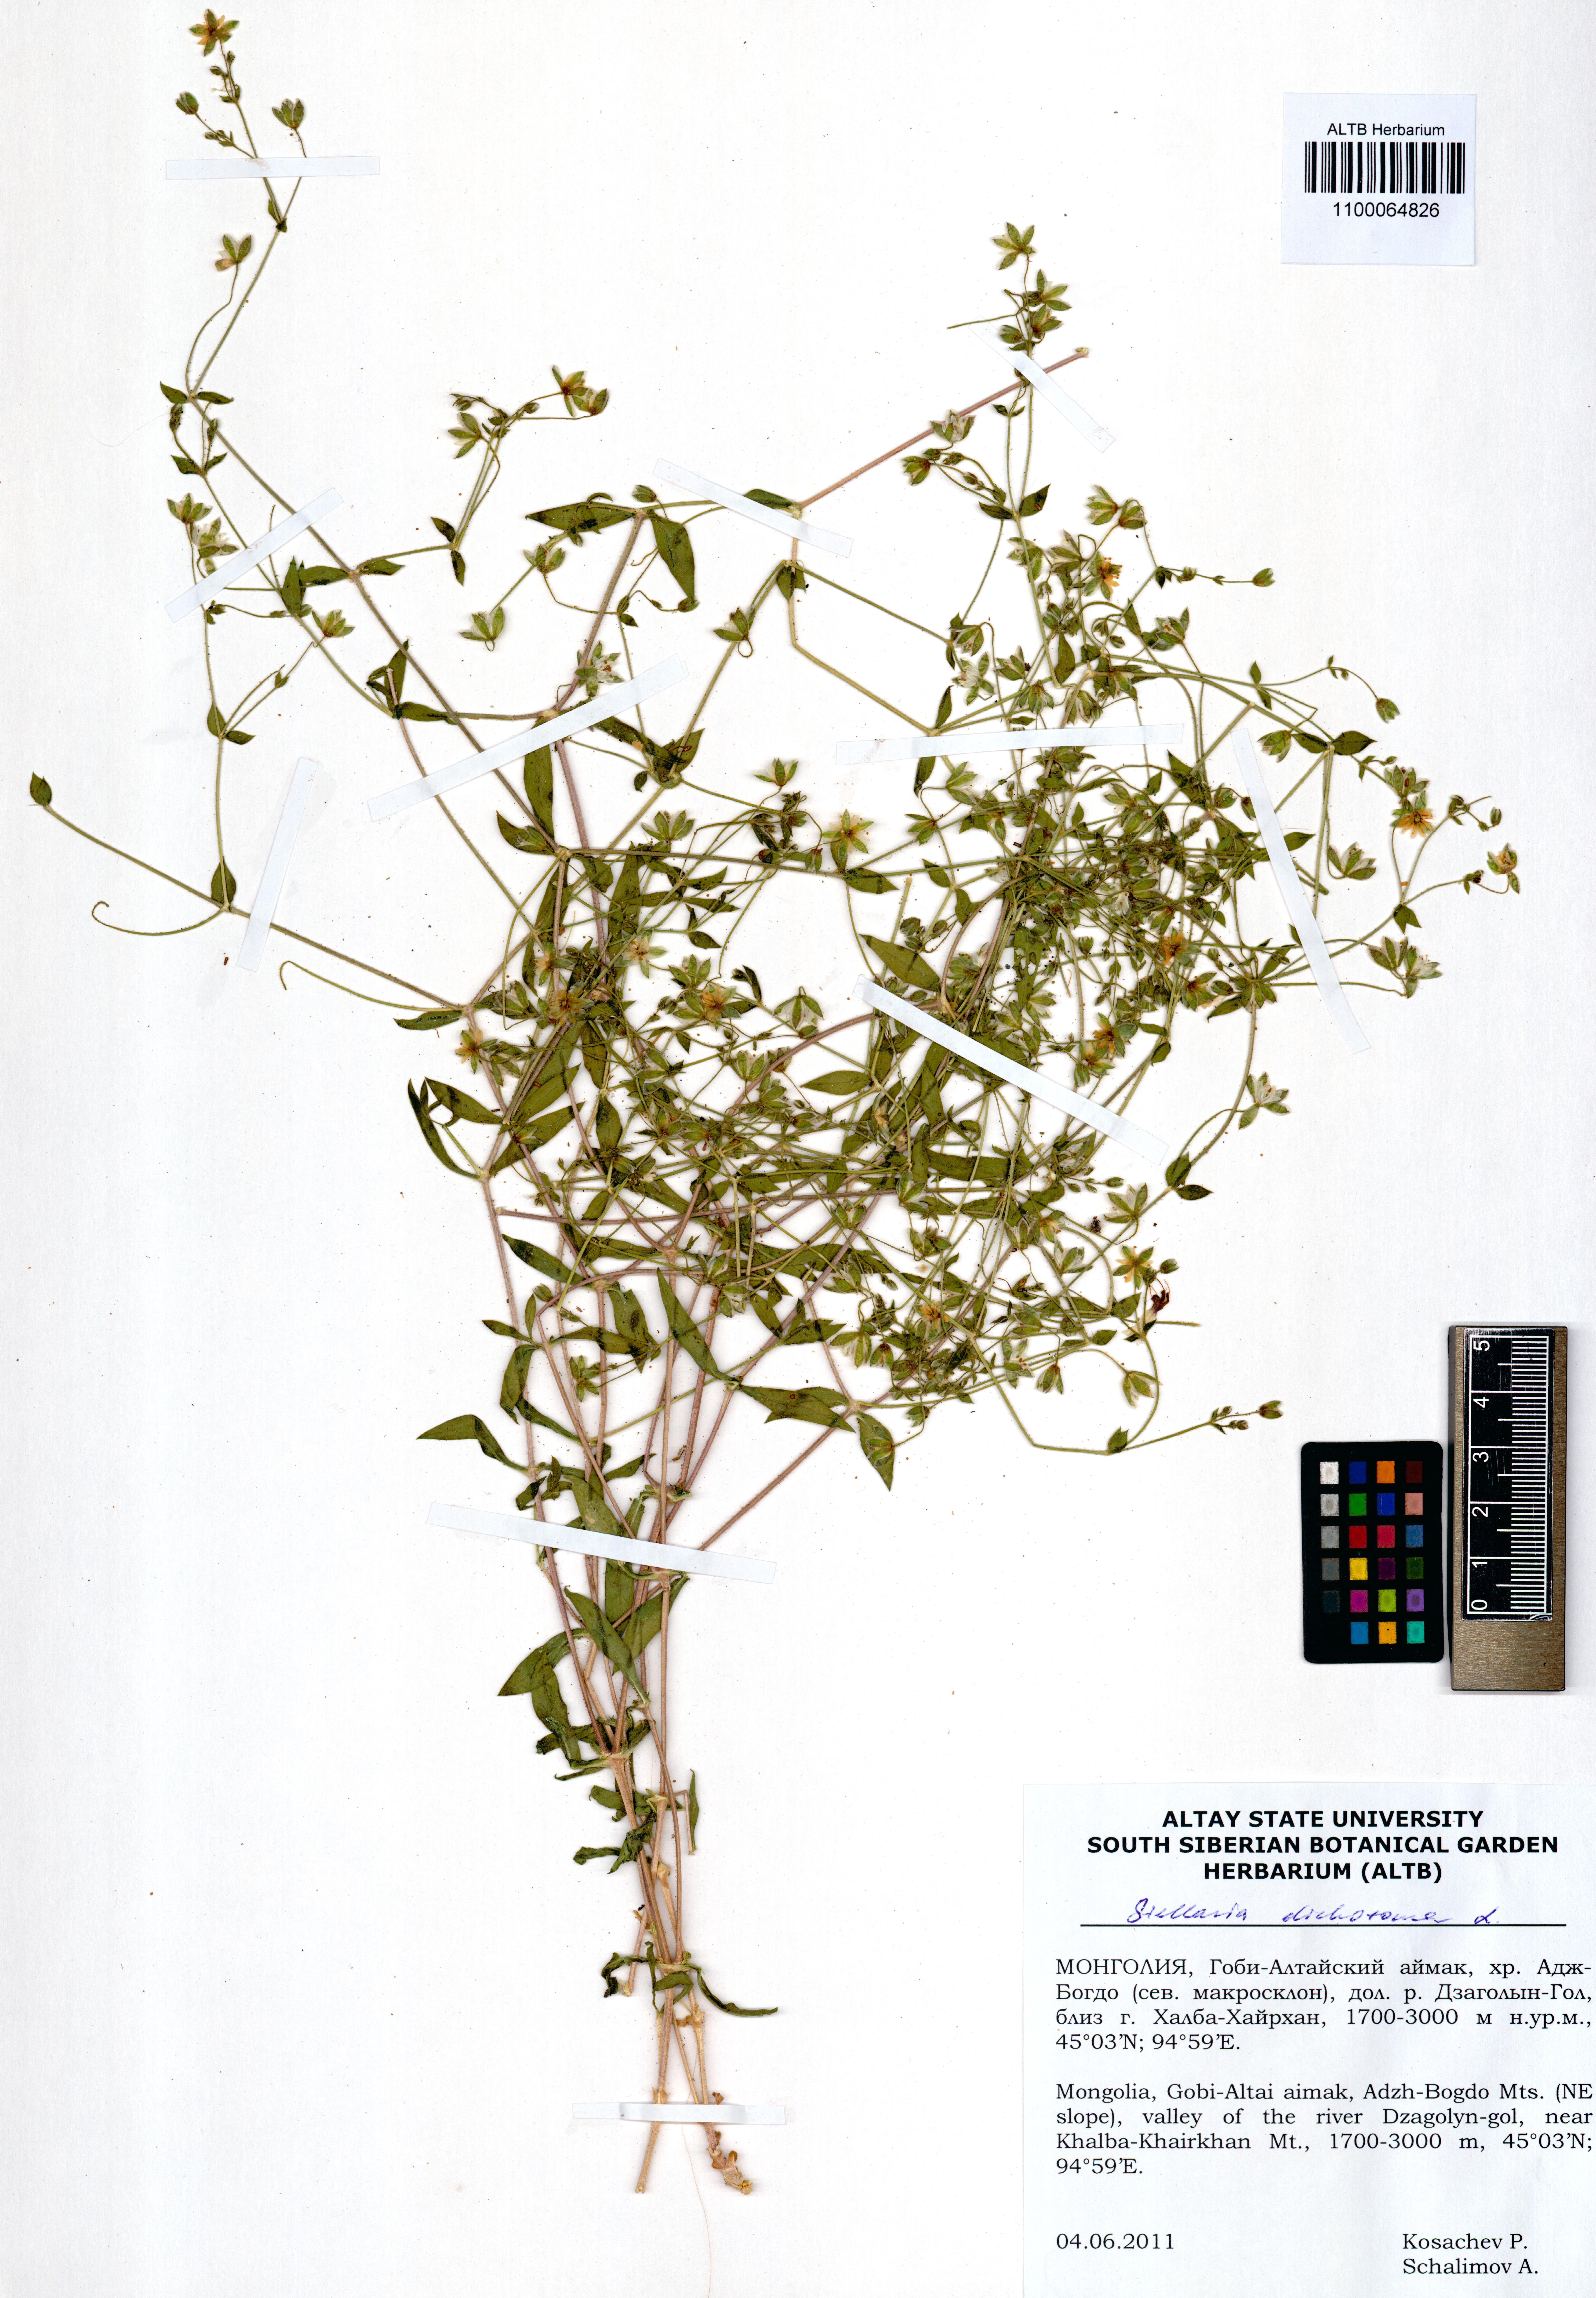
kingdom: Plantae
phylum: Tracheophyta
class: Magnoliopsida
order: Caryophyllales
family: Caryophyllaceae
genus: Mesostemma
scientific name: Mesostemma dichotomum
